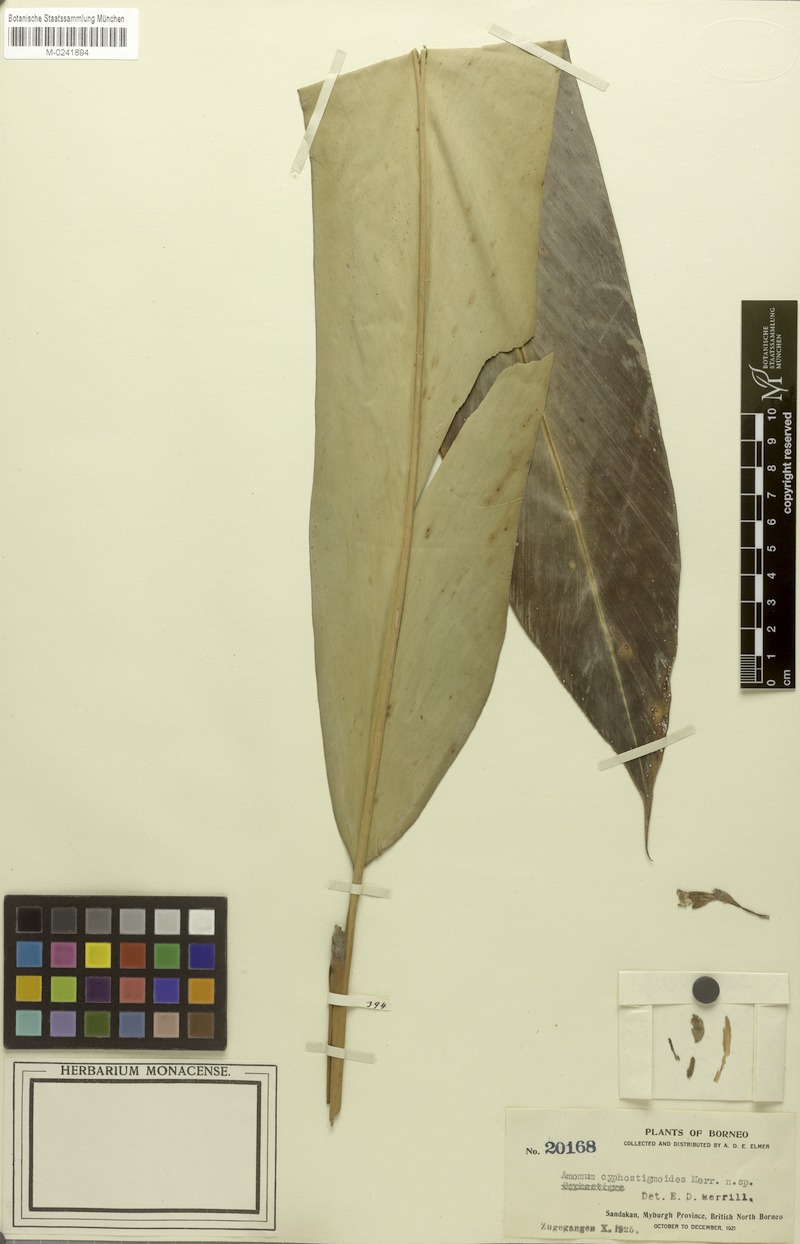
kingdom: Plantae
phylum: Tracheophyta
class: Liliopsida
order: Zingiberales
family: Zingiberaceae
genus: Amomum
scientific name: Amomum
